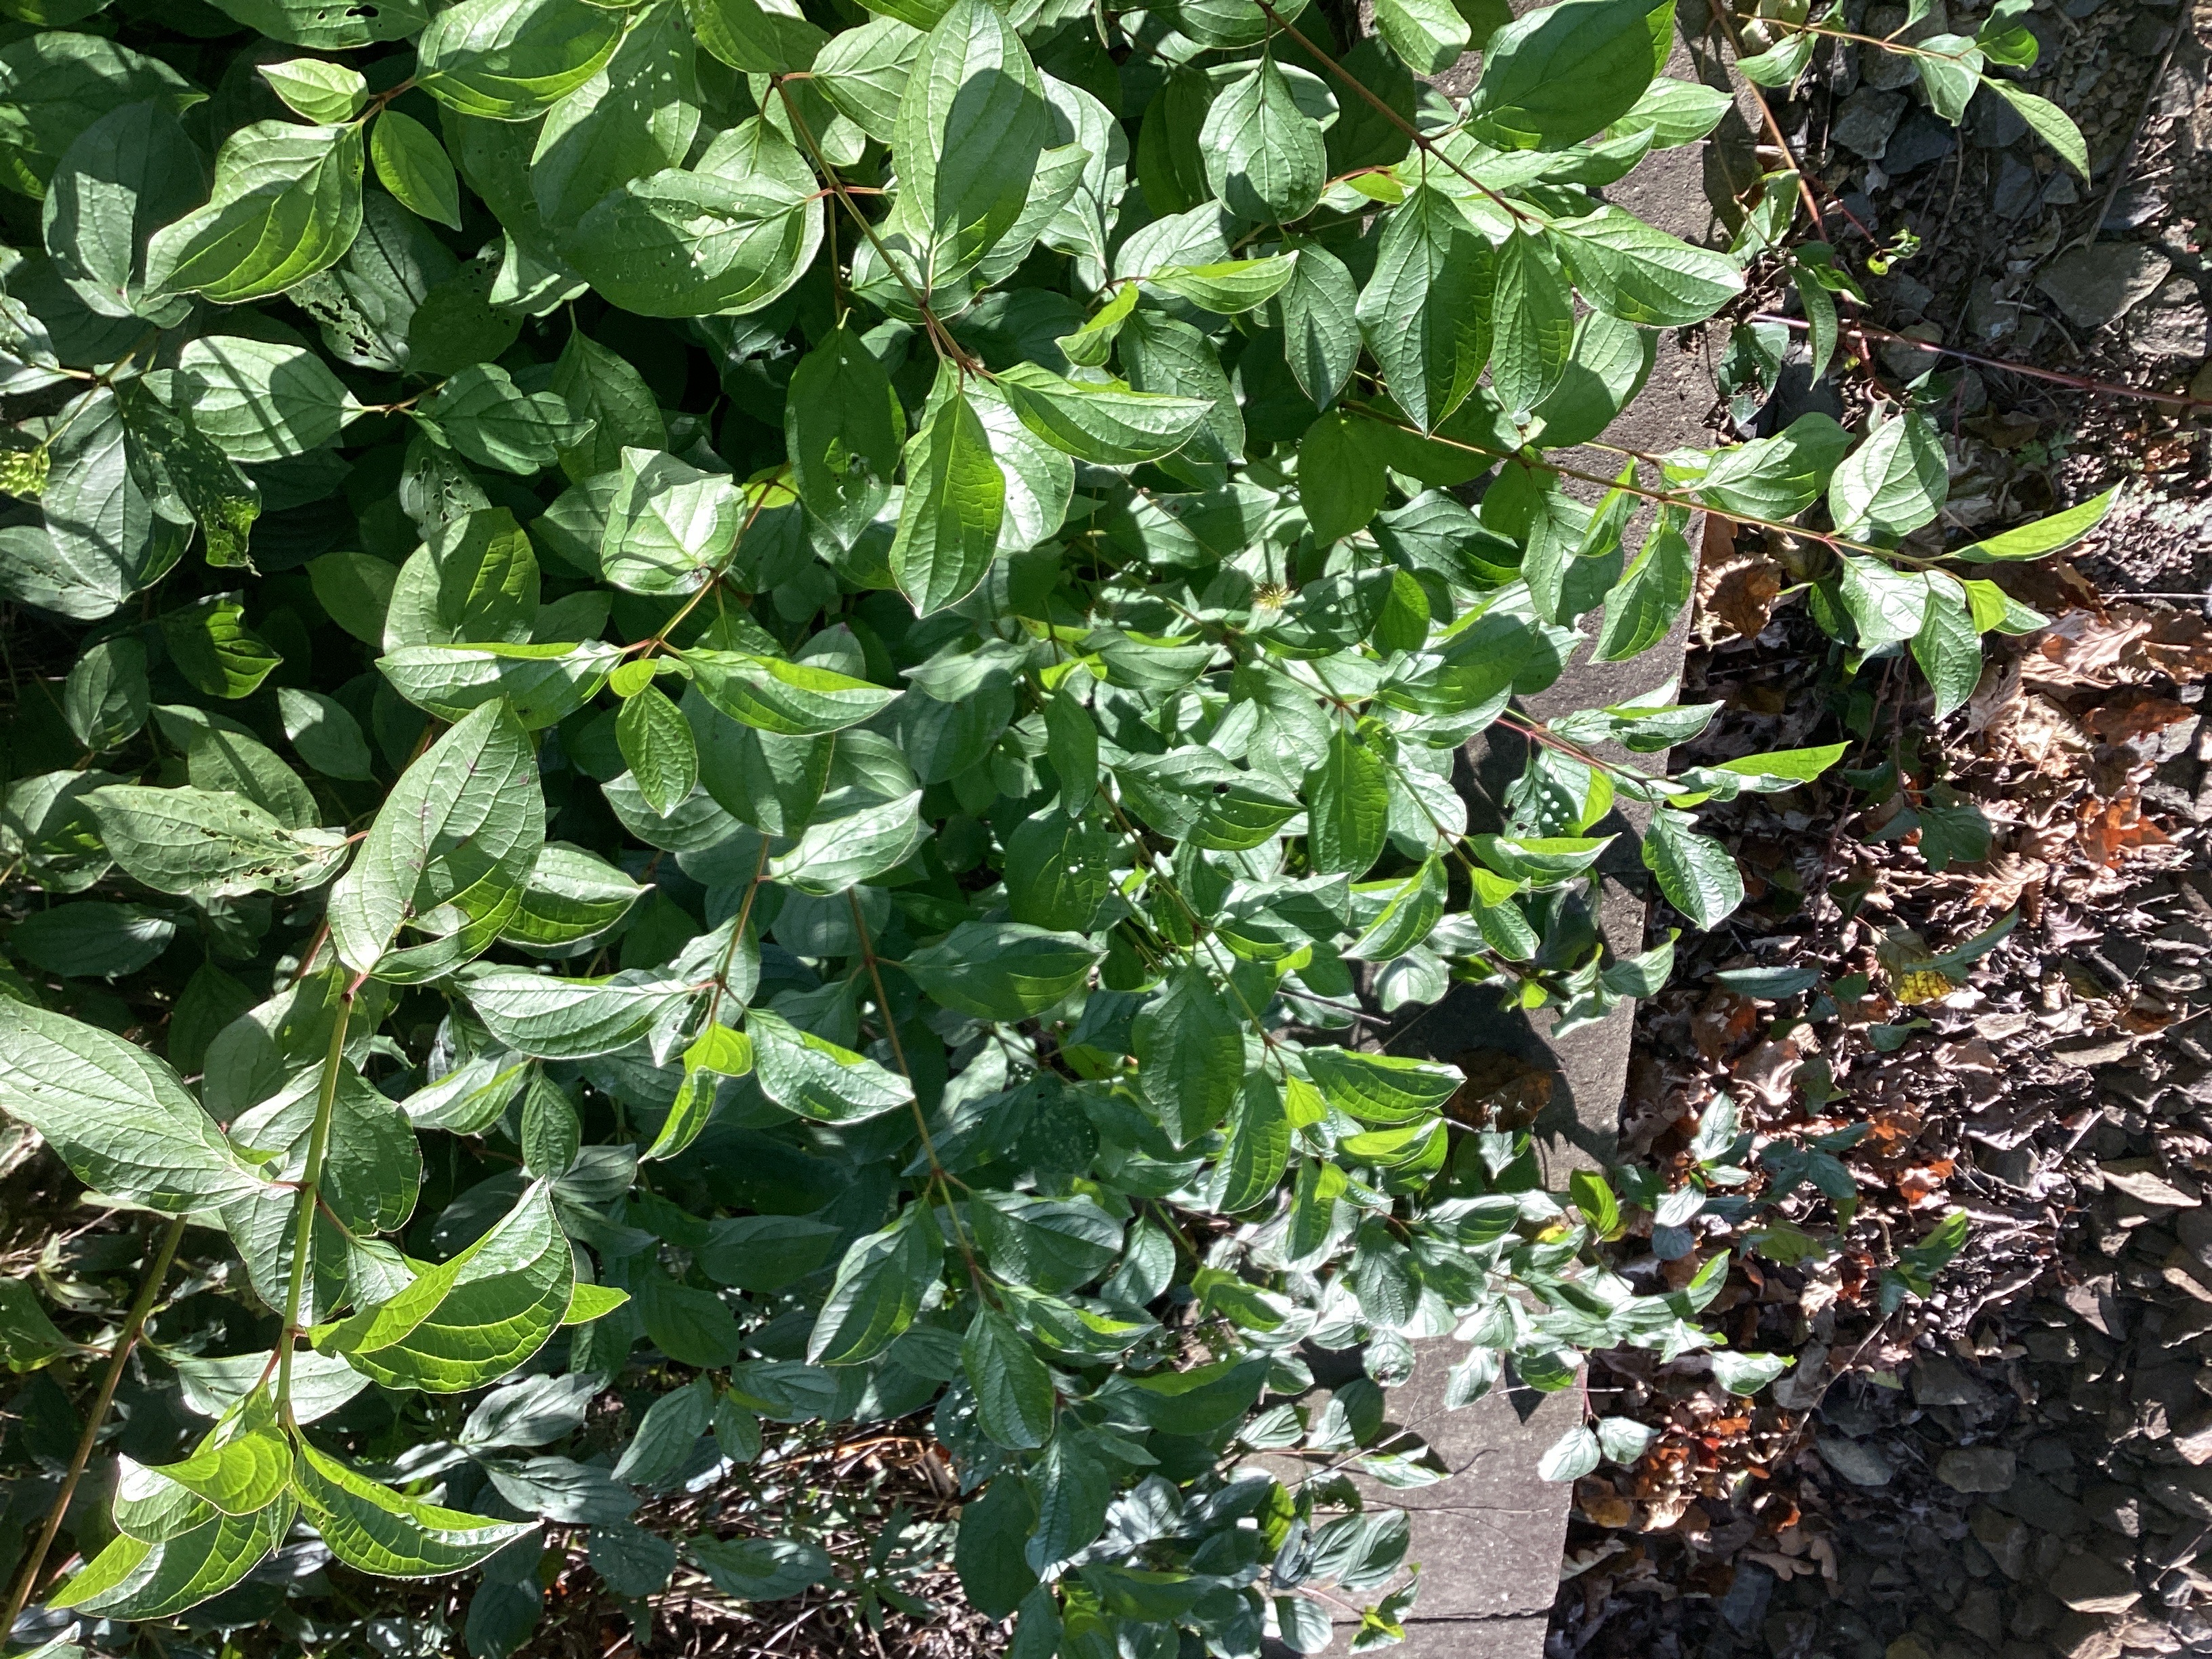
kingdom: Plantae
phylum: Tracheophyta
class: Magnoliopsida
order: Cornales
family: Cornaceae
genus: Cornus
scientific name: Cornus sericea
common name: alaskakornell
